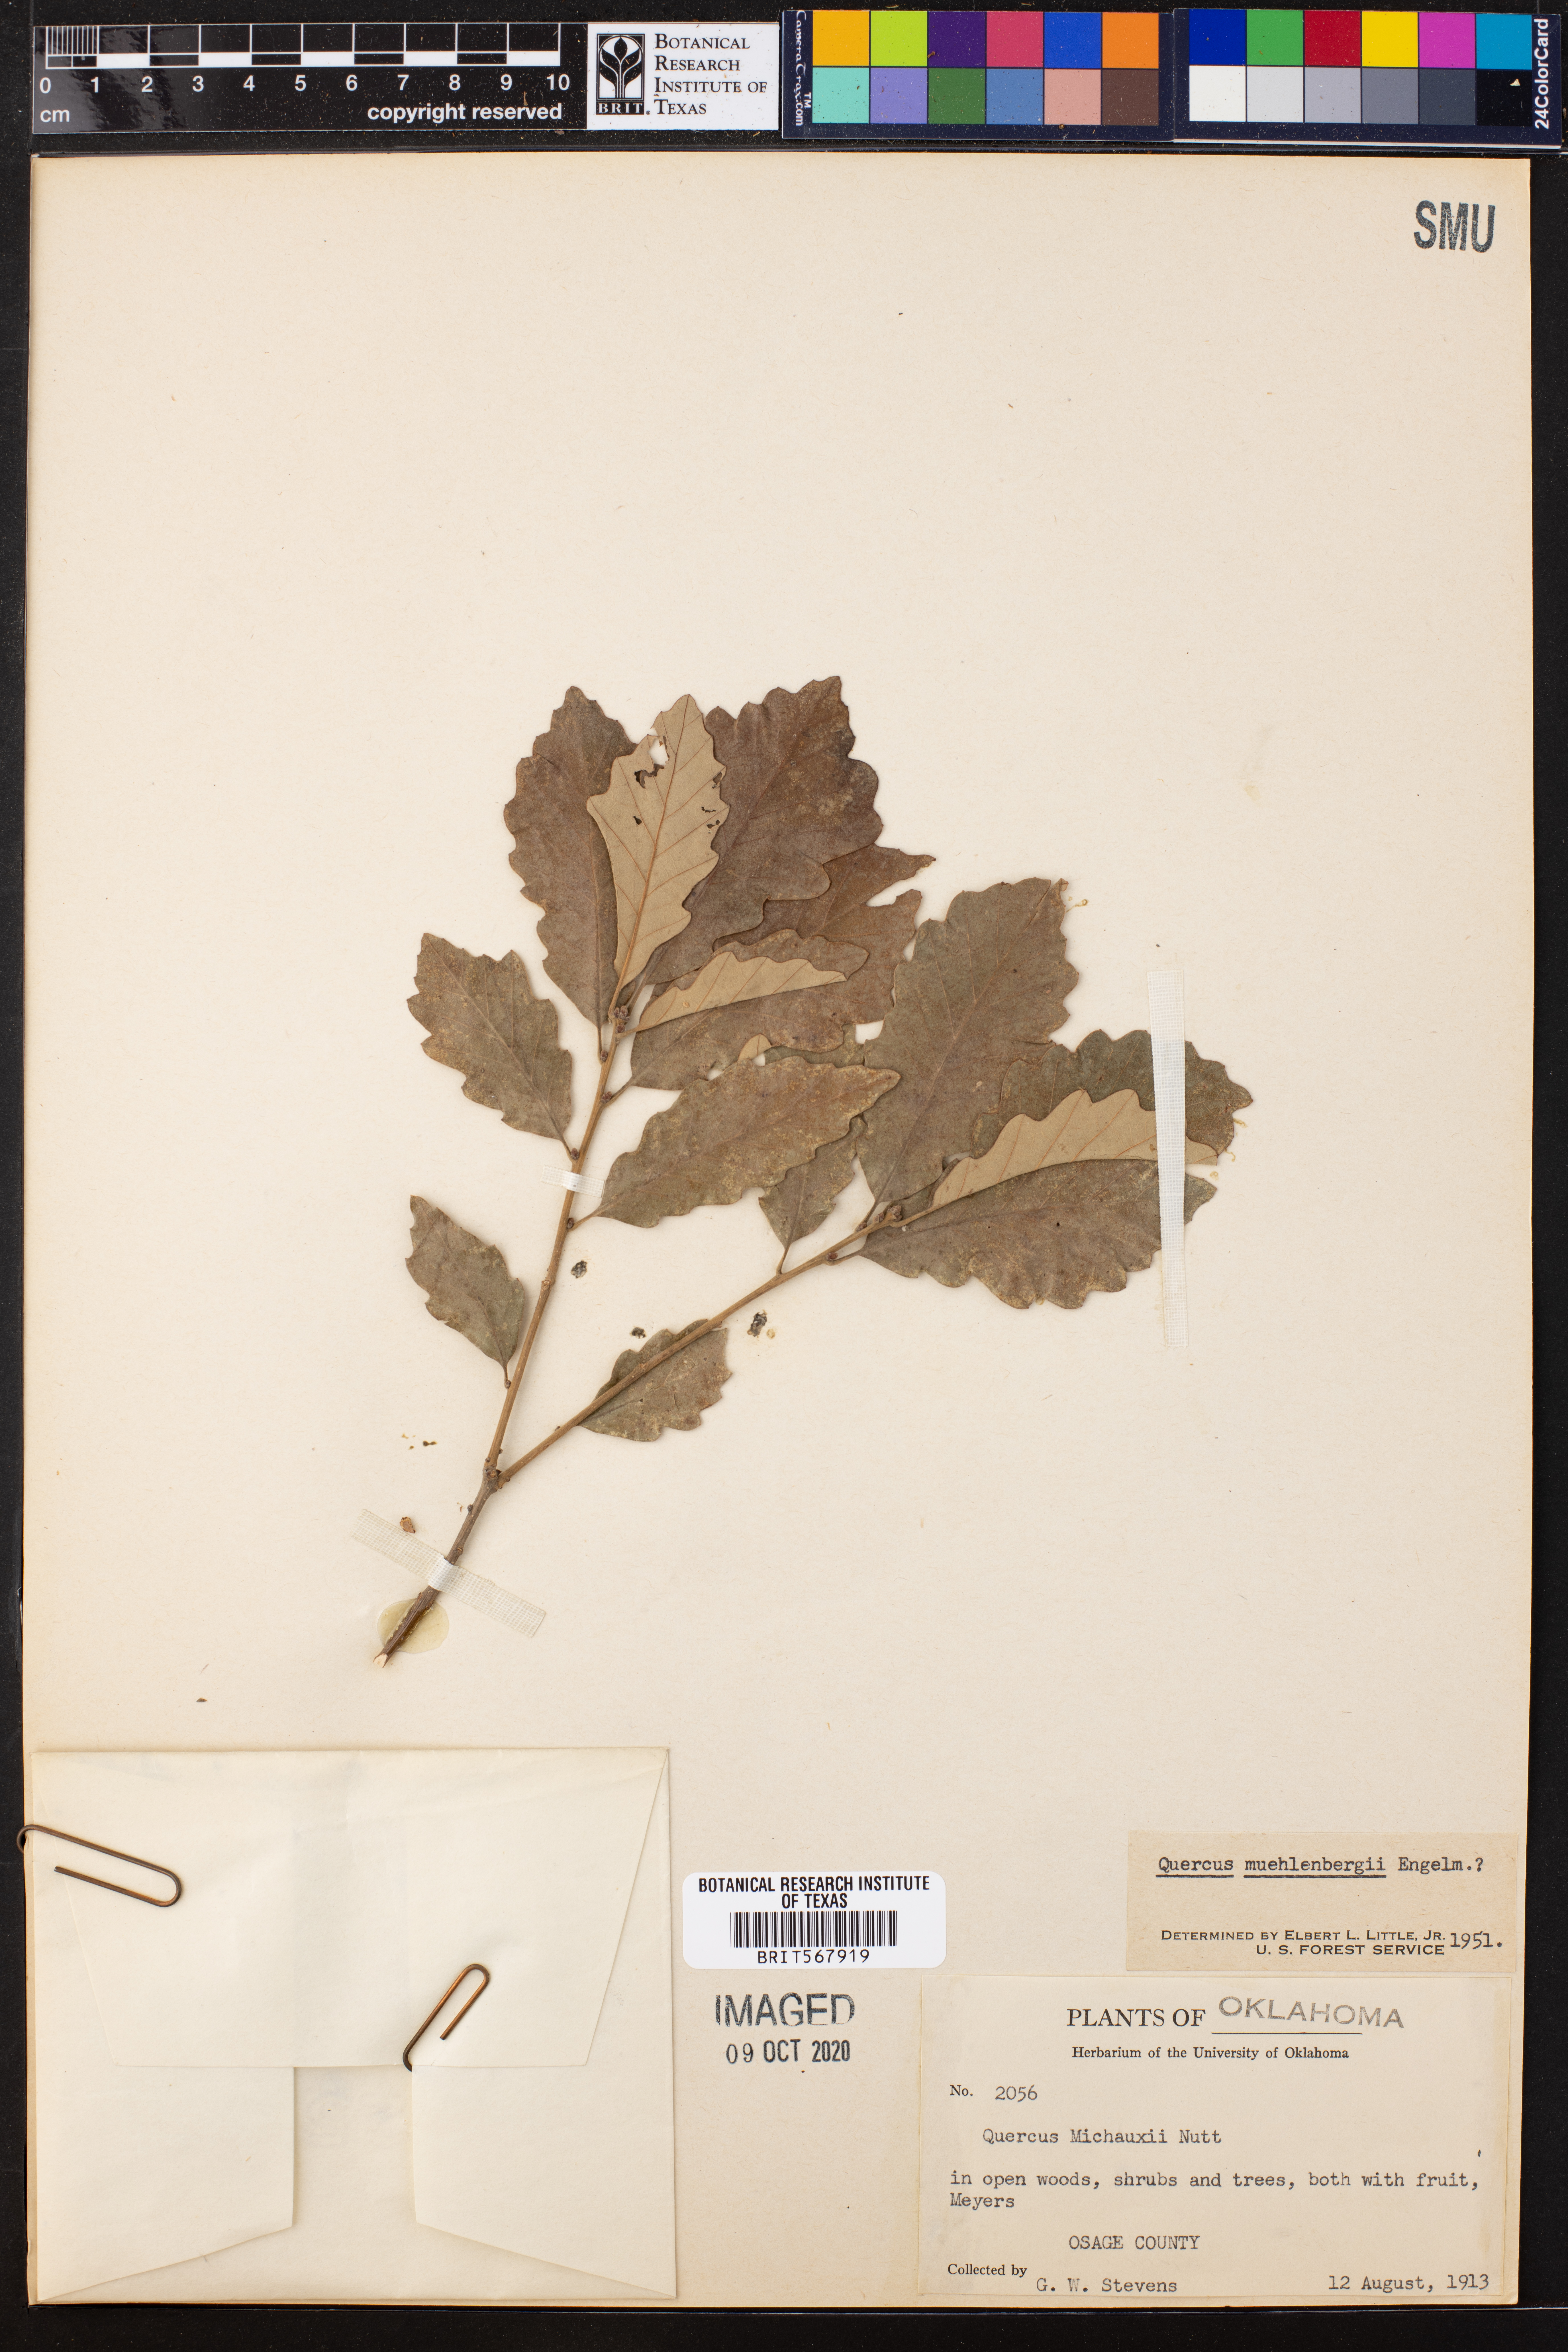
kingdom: Plantae
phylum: Tracheophyta
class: Magnoliopsida
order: Fagales
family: Fagaceae
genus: Quercus
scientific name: Quercus muehlenbergii
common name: Chinkapin oak
